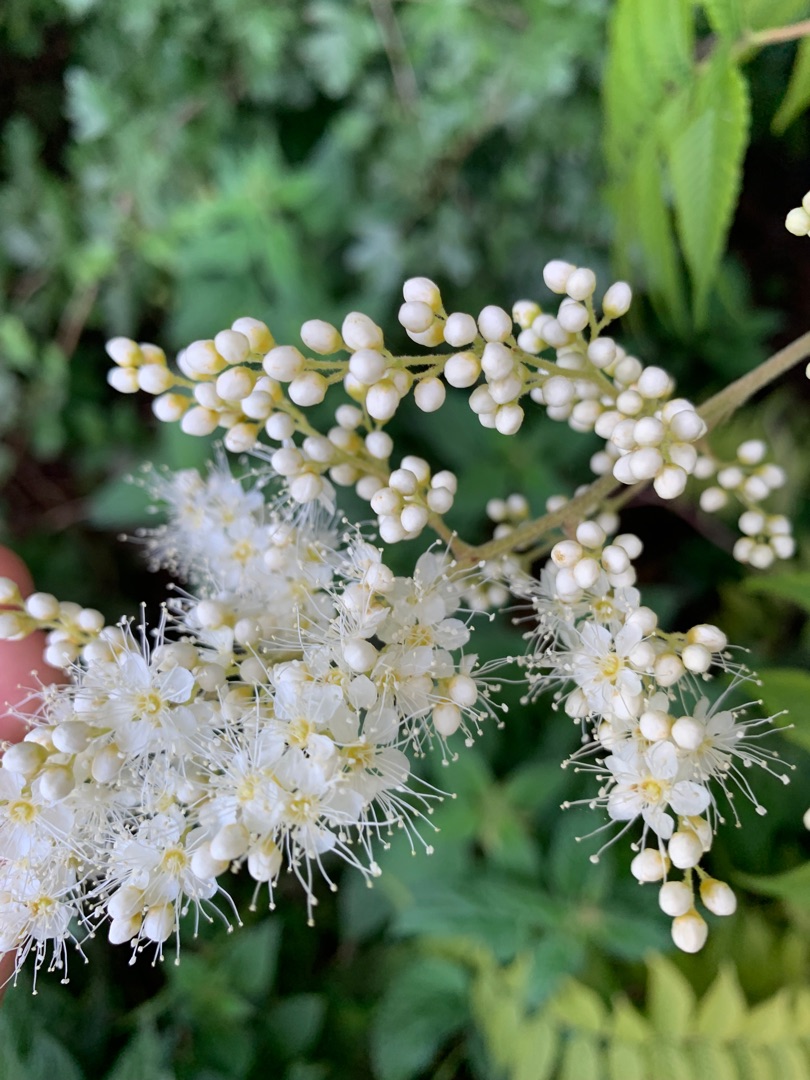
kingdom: Plantae
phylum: Tracheophyta
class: Magnoliopsida
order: Rosales
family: Rosaceae
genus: Sorbaria
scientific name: Sorbaria kirilowii
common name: Kinesisk tusindtop
